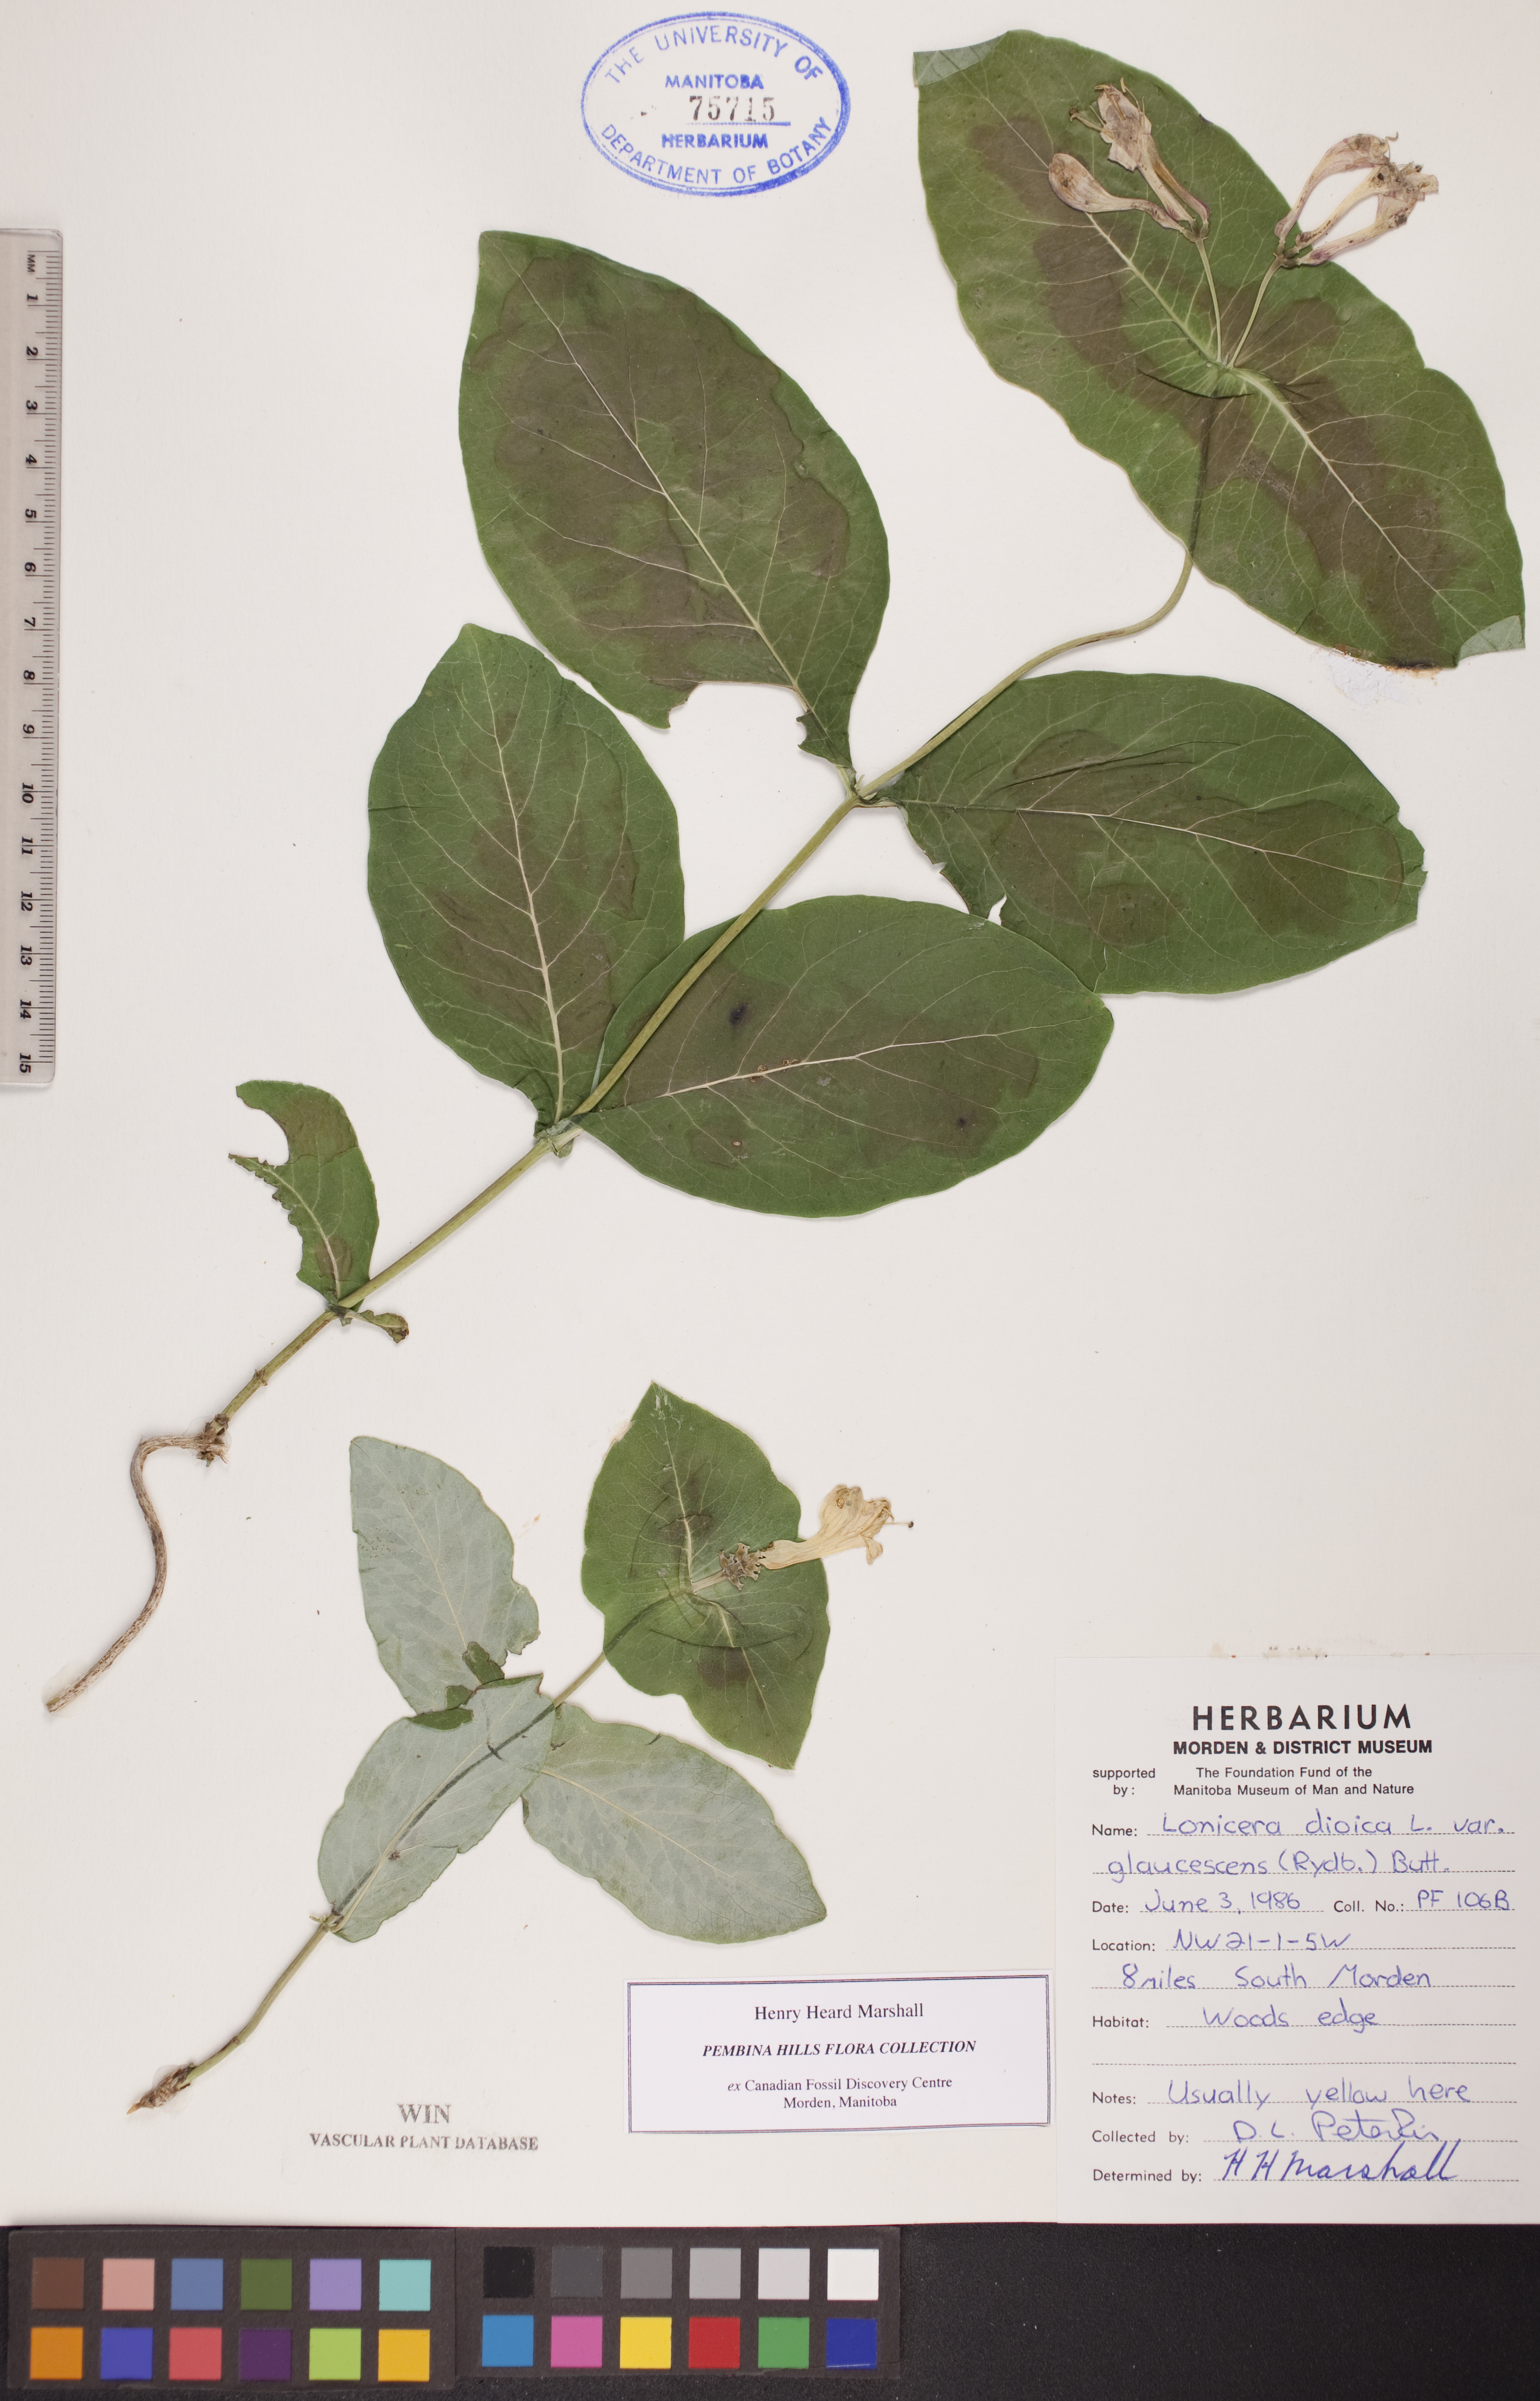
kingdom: Plantae
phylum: Tracheophyta
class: Magnoliopsida
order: Dipsacales
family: Caprifoliaceae
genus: Lonicera
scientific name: Lonicera dioica
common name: Limber honeysuckle
